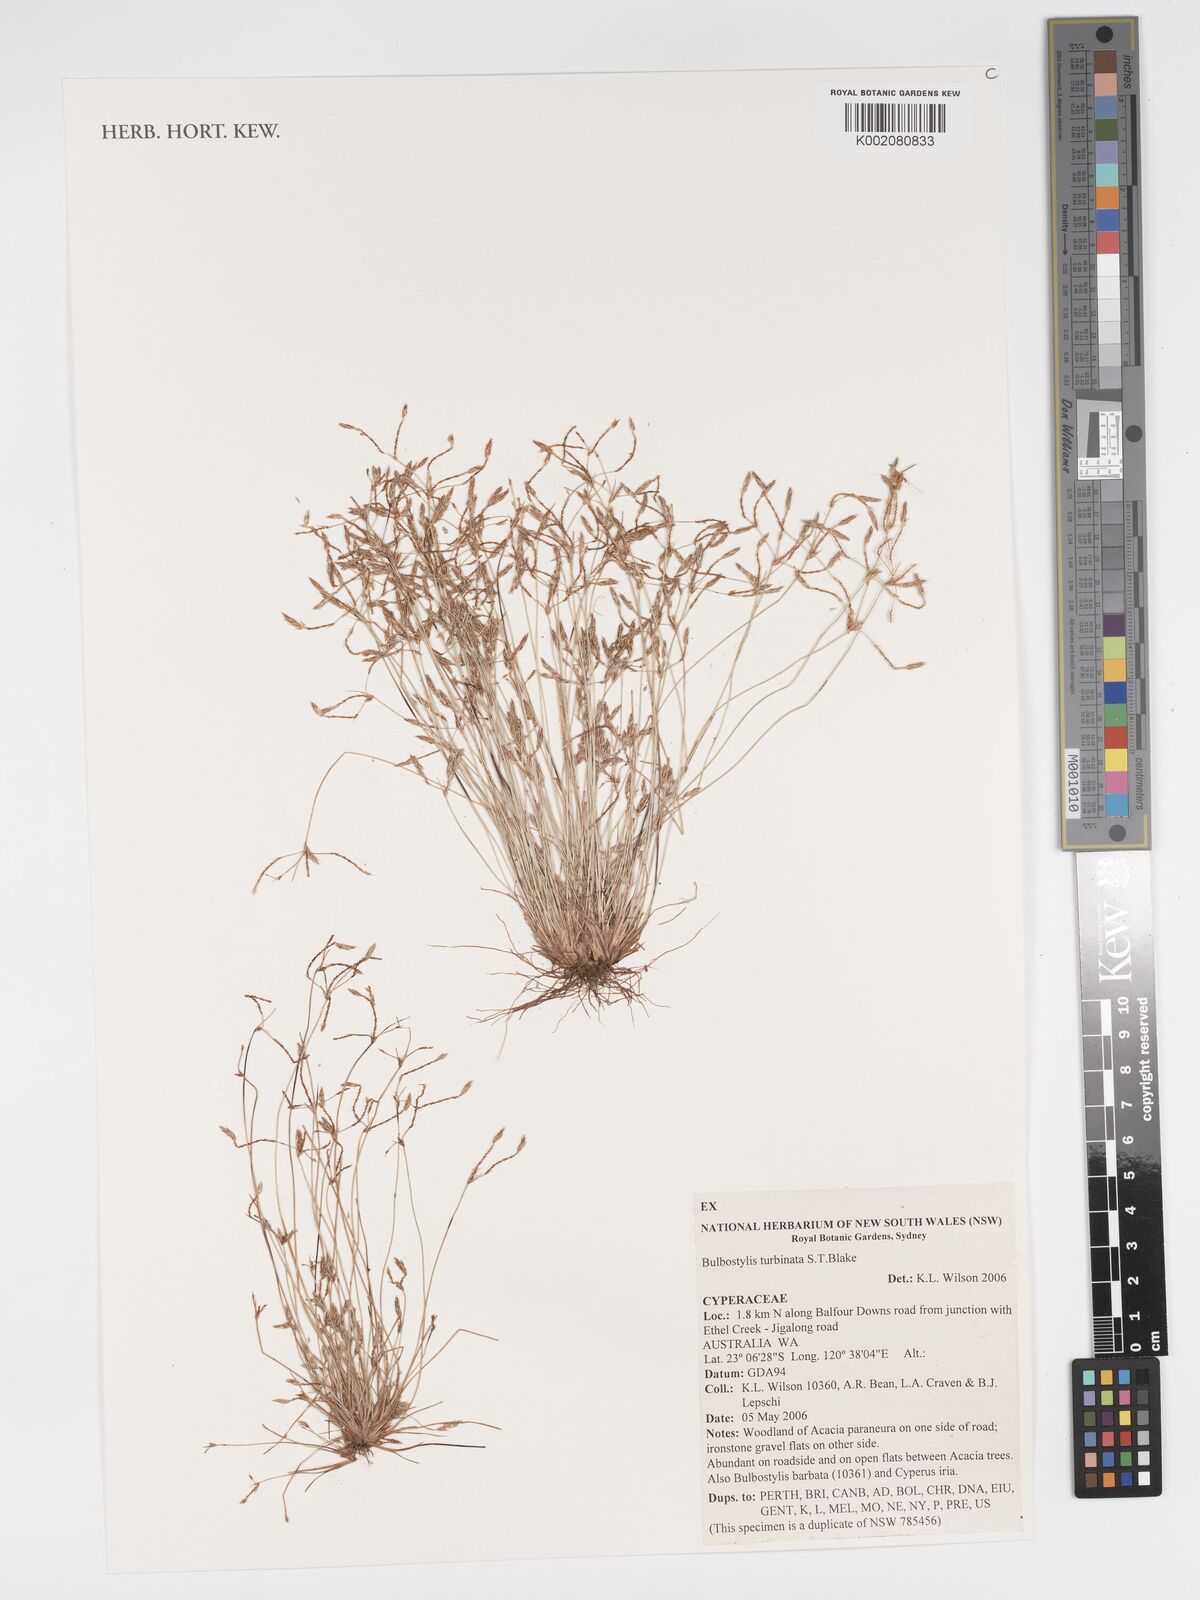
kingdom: Plantae
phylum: Tracheophyta
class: Liliopsida
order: Poales
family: Cyperaceae
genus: Bulbostylis
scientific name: Bulbostylis turbinata
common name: Hair sedge
